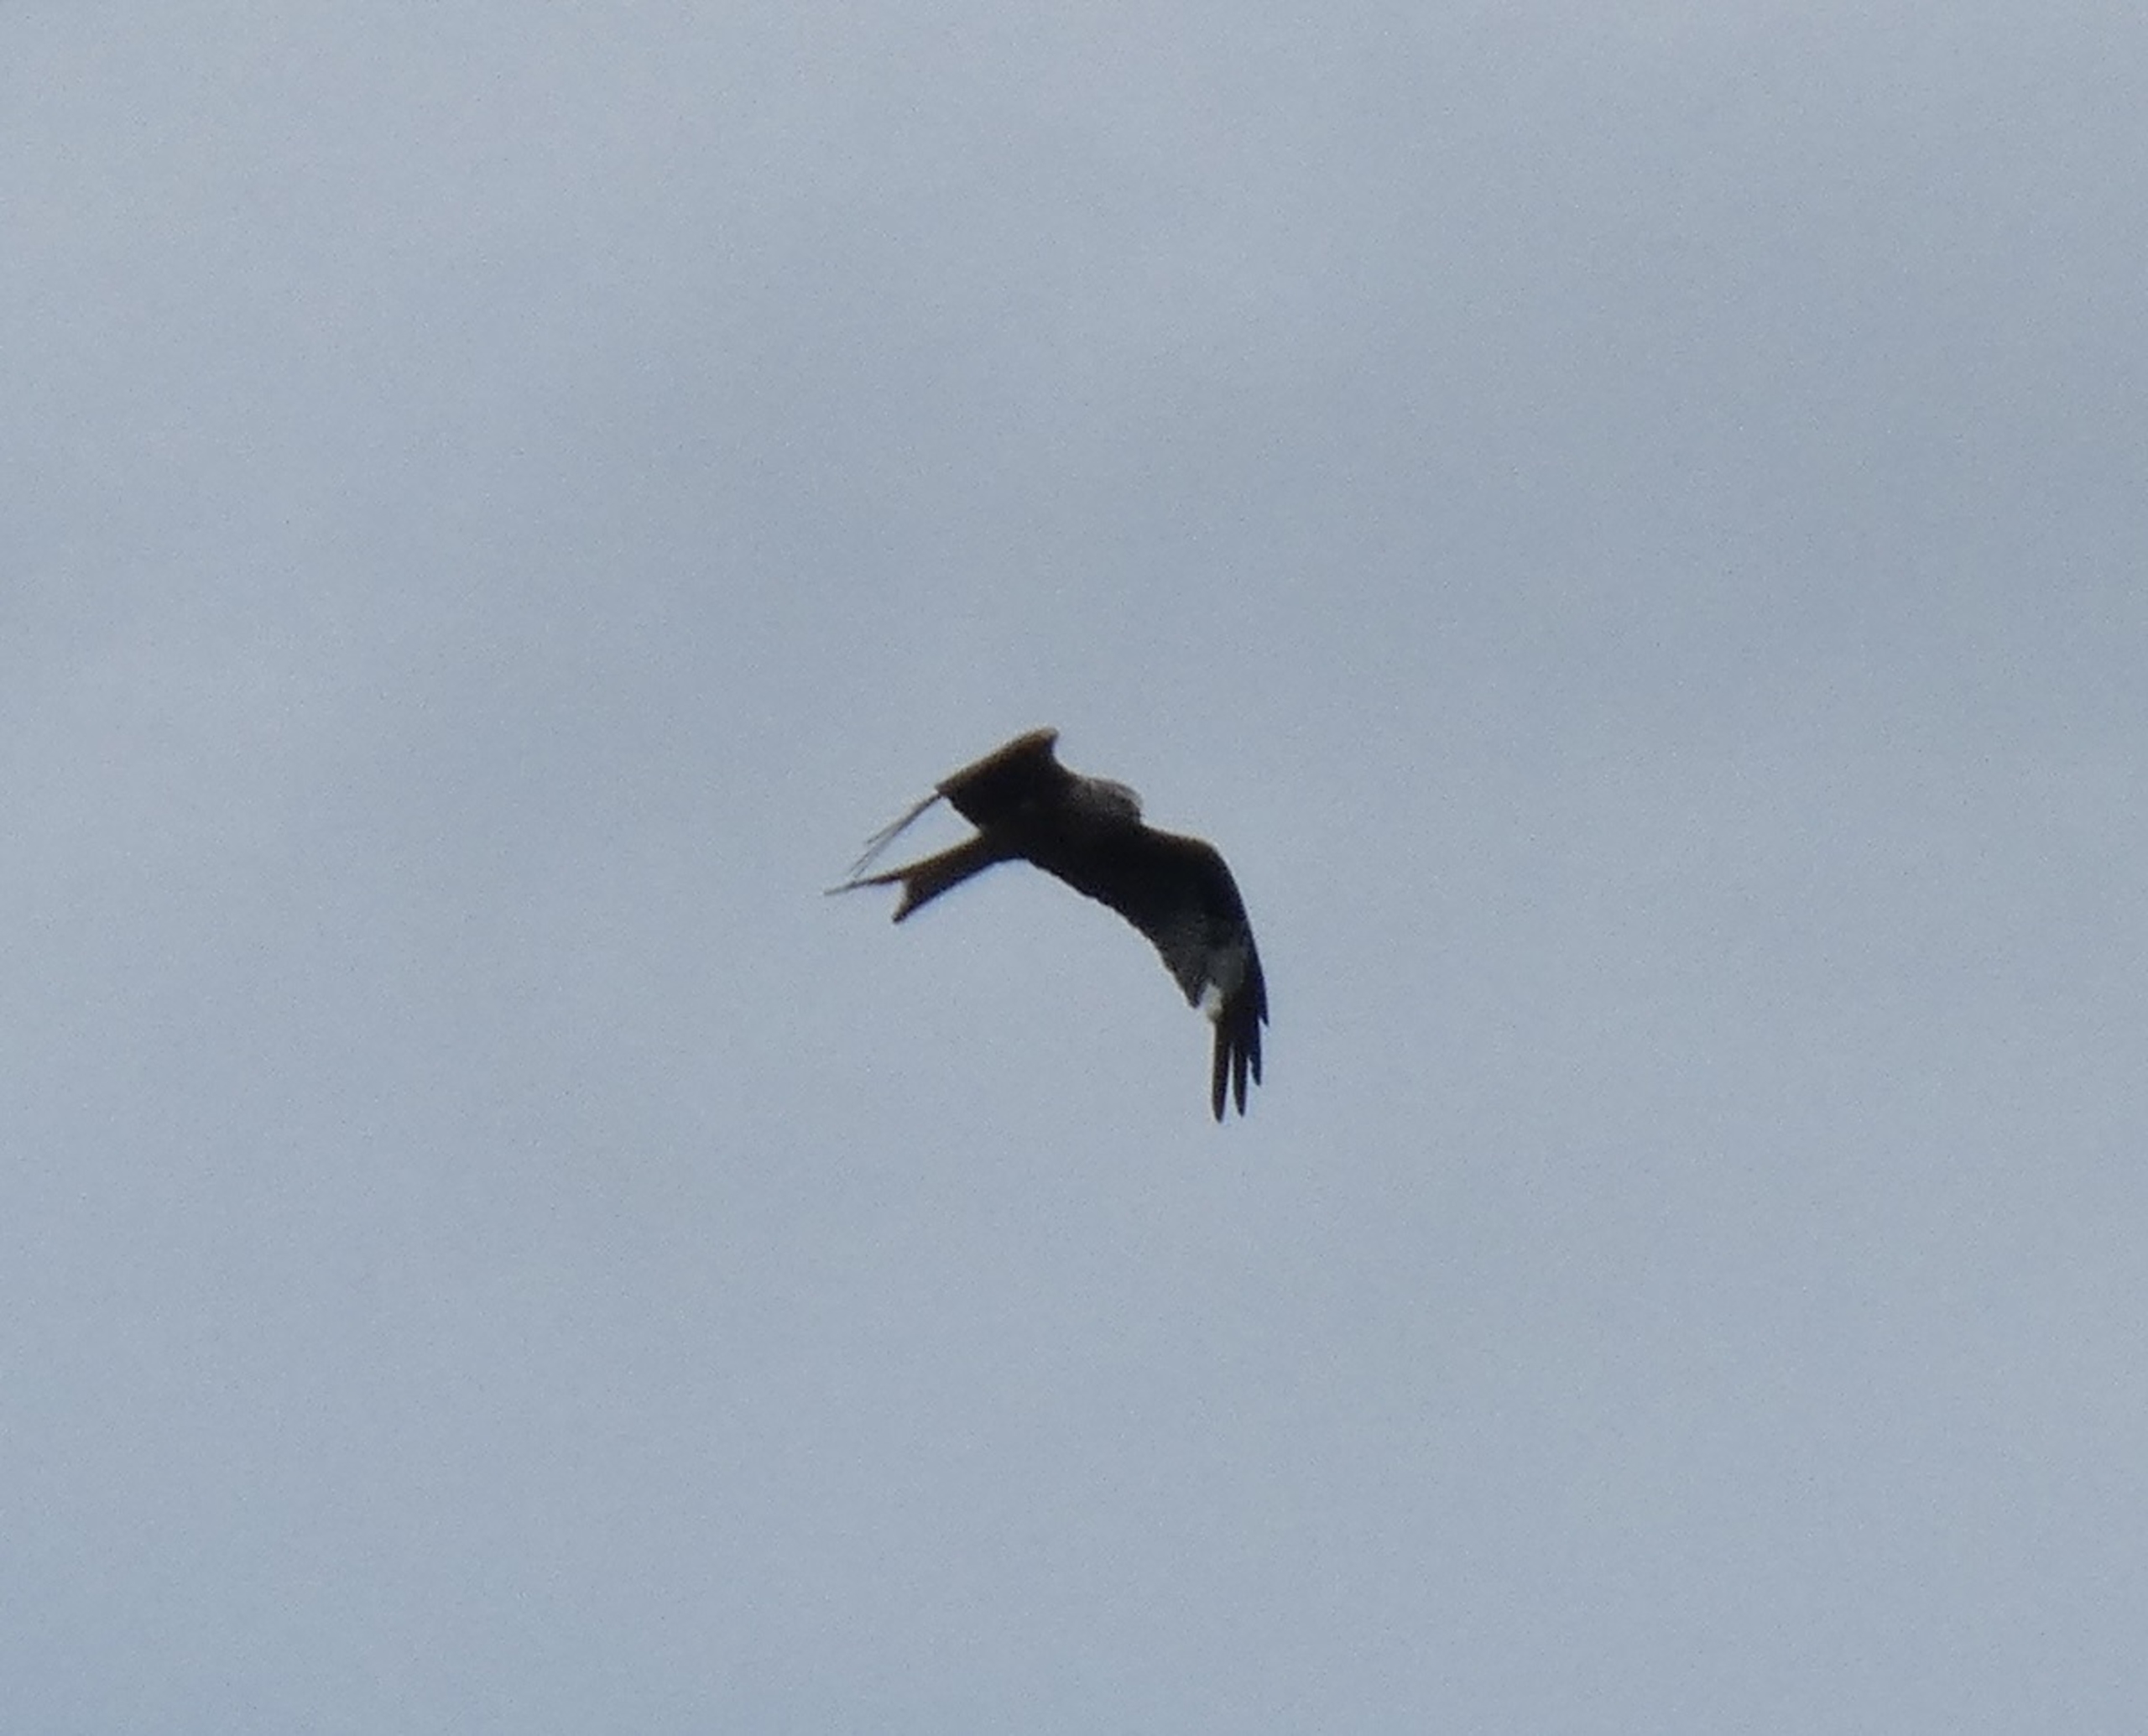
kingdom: Animalia
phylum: Chordata
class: Aves
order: Accipitriformes
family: Accipitridae
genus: Milvus
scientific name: Milvus milvus
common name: Rød glente
